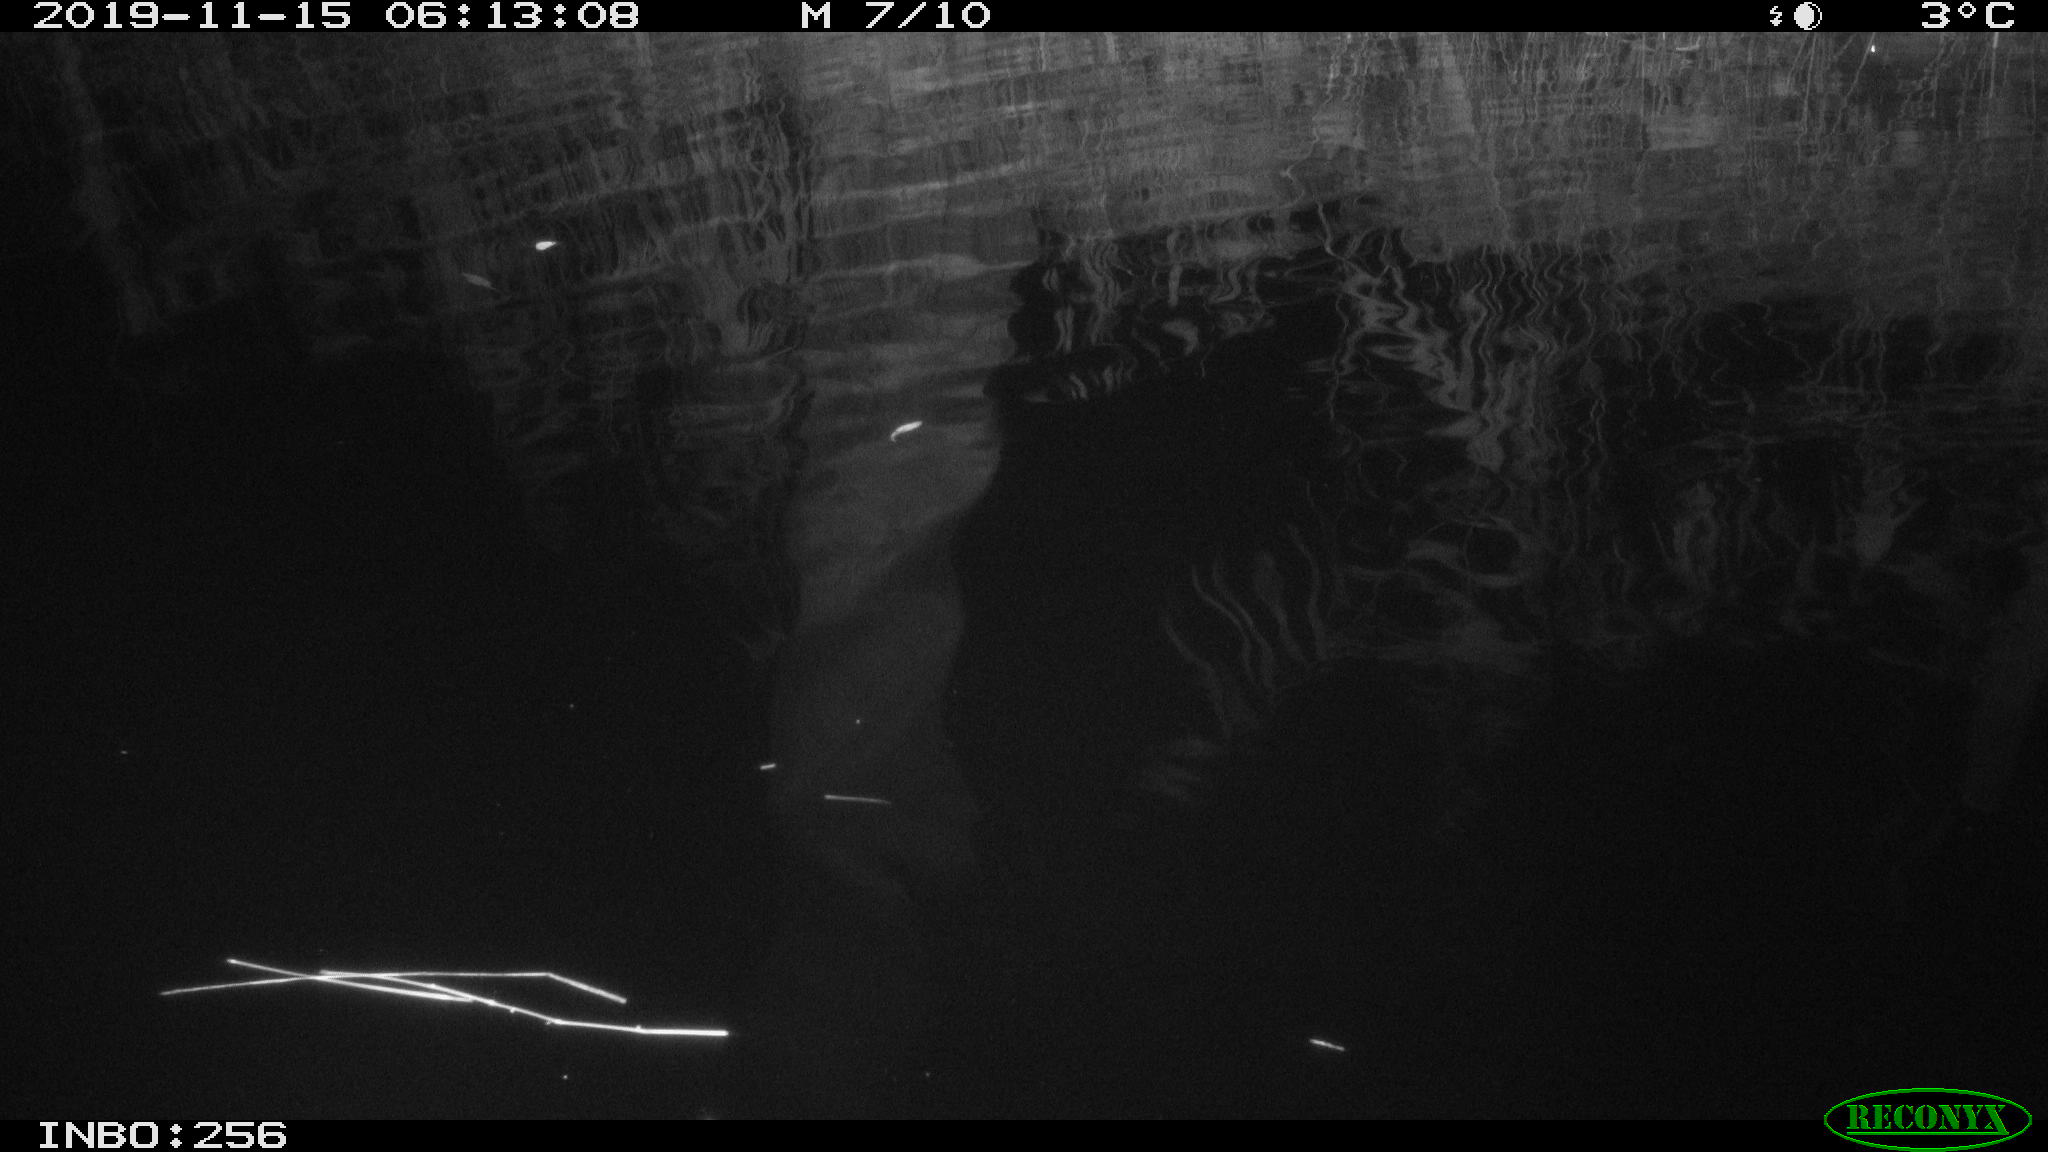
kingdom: Animalia
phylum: Chordata
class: Mammalia
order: Rodentia
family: Muridae
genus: Rattus
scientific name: Rattus norvegicus
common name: Brown rat
